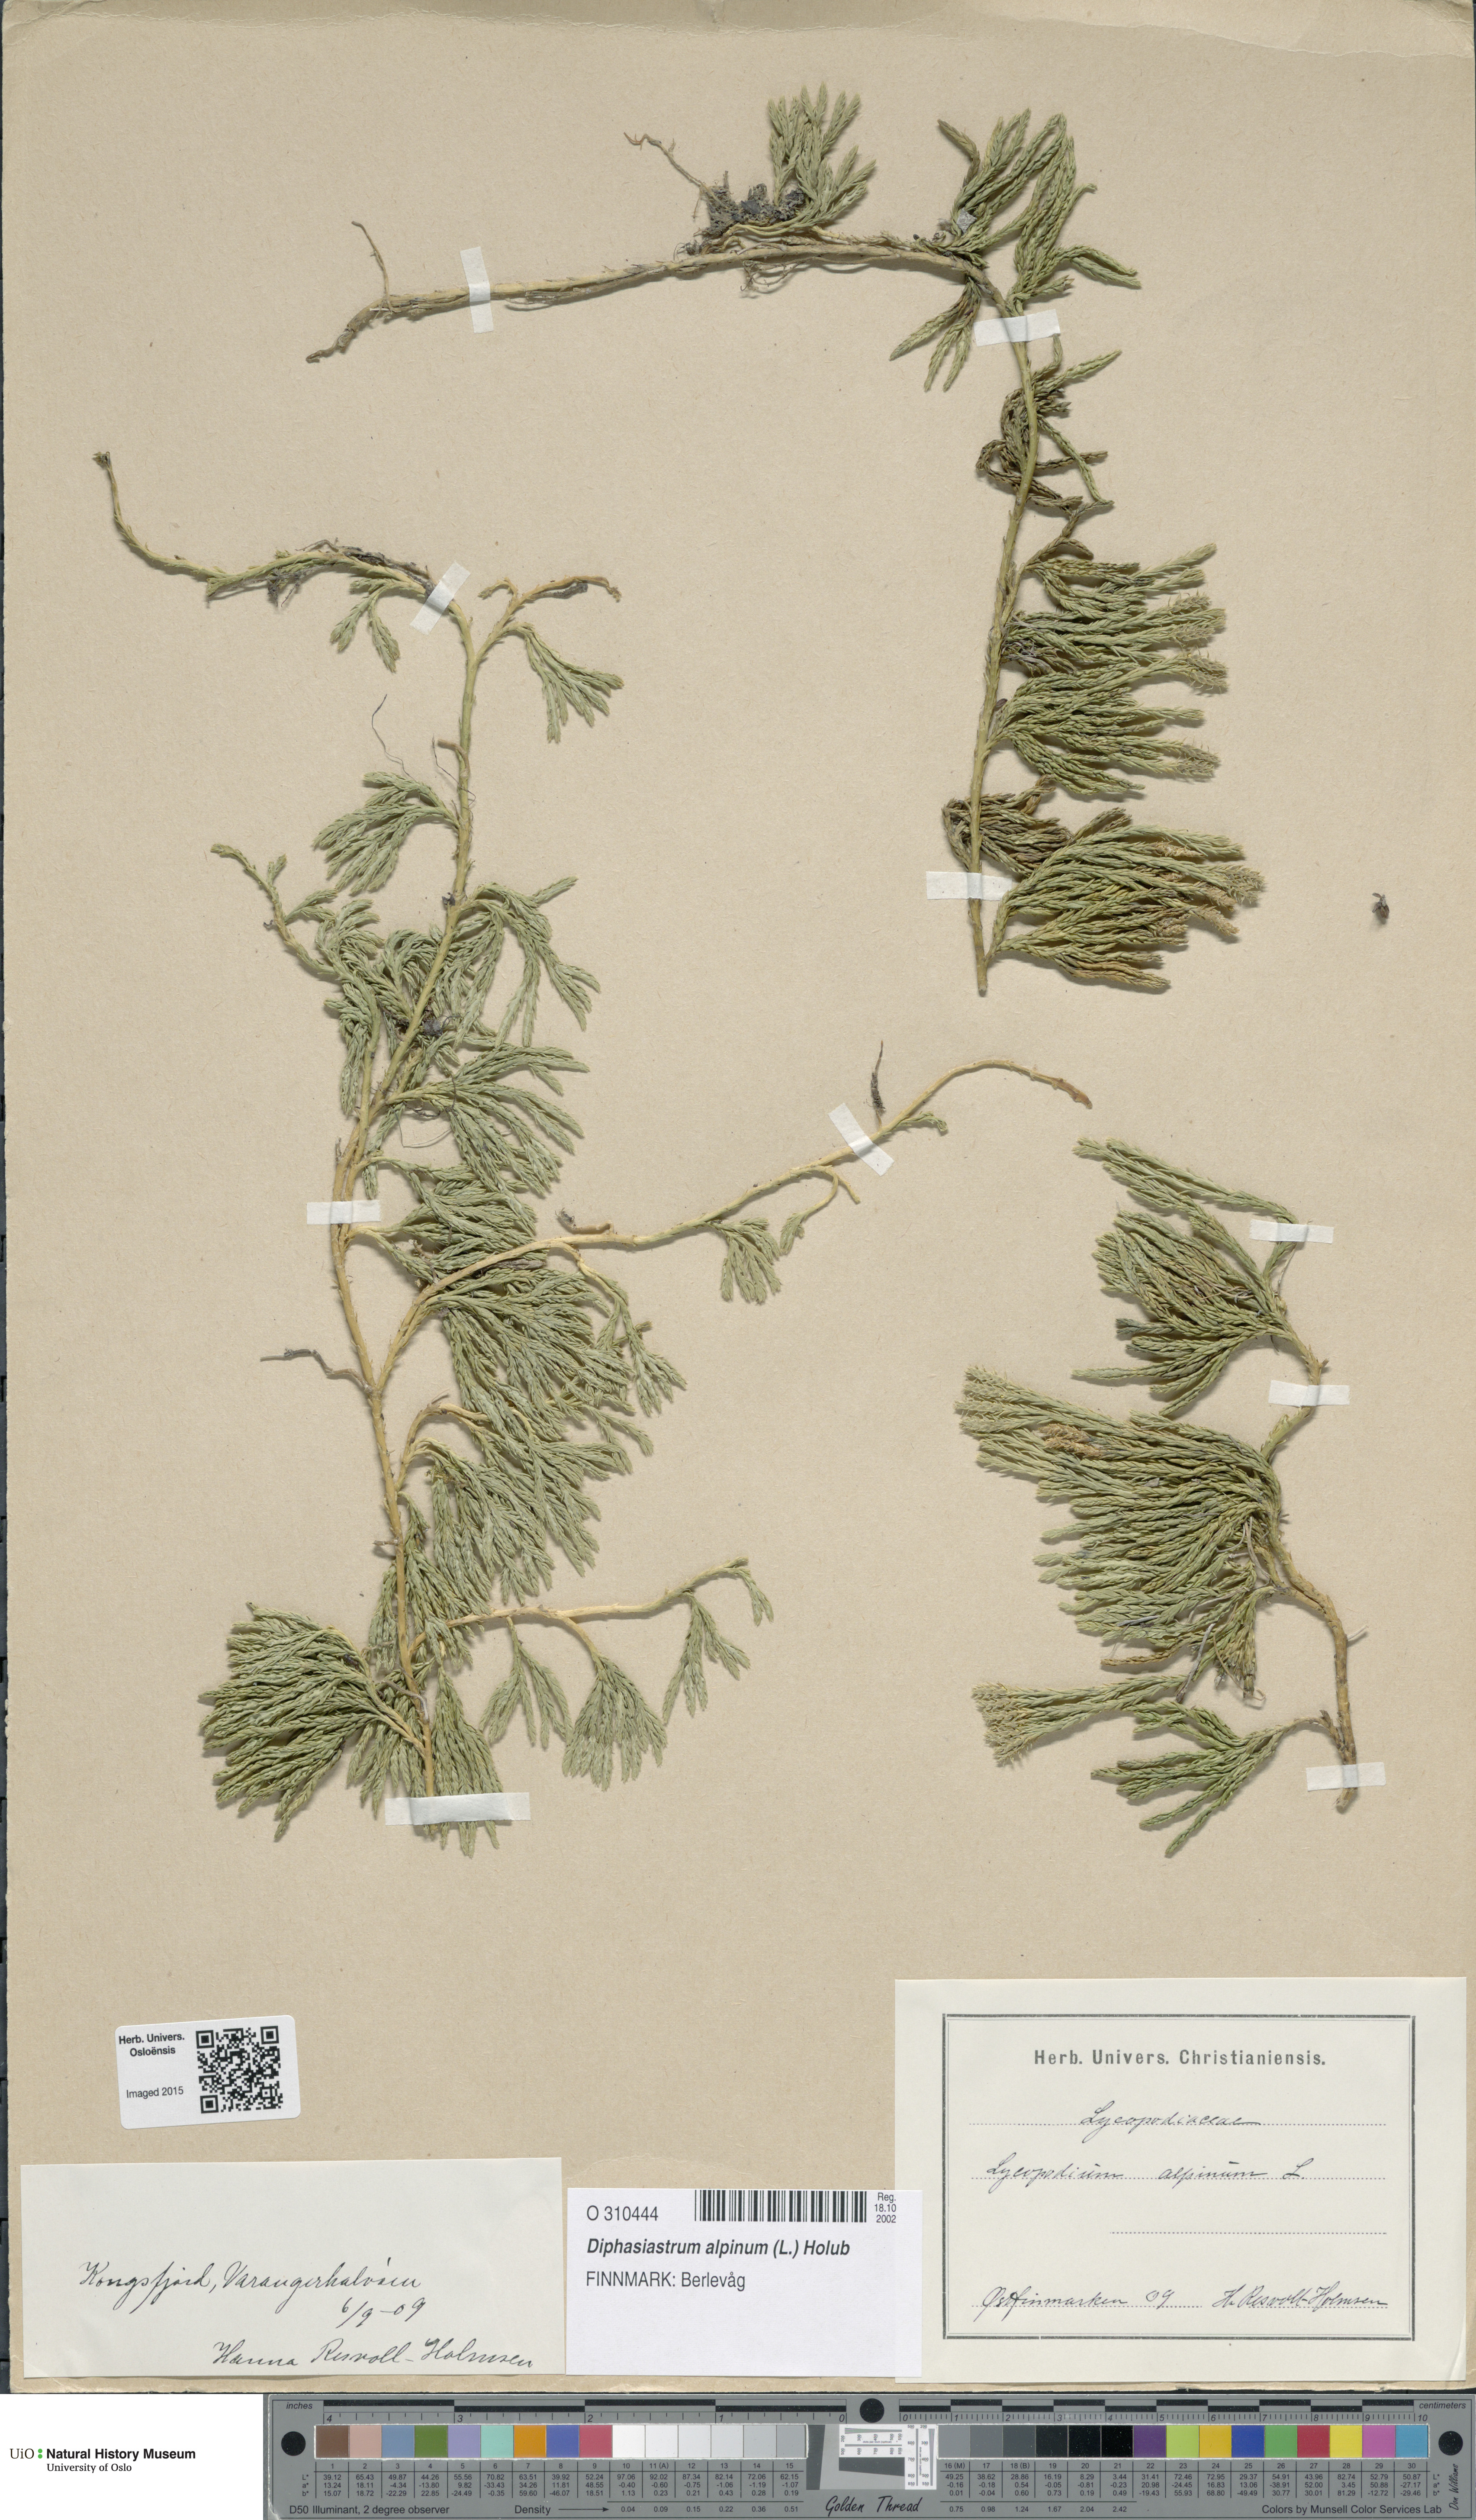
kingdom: Plantae
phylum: Tracheophyta
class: Lycopodiopsida
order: Lycopodiales
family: Lycopodiaceae
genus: Diphasiastrum
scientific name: Diphasiastrum alpinum
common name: Alpine clubmoss
